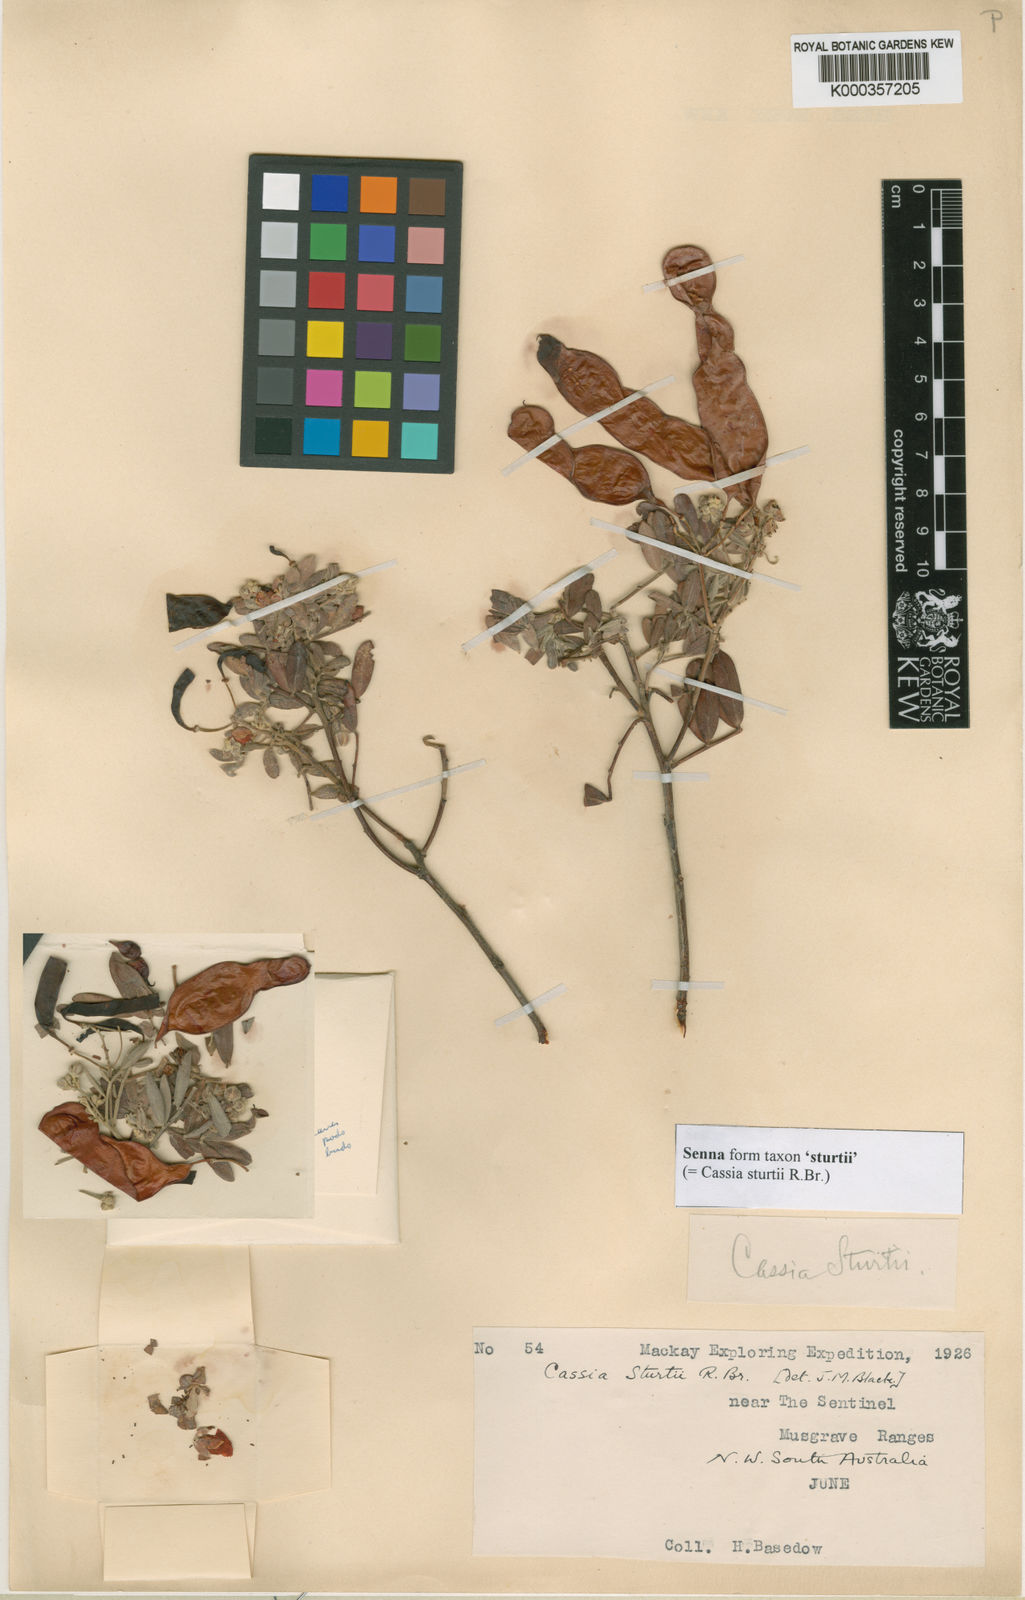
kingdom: Plantae
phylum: Tracheophyta
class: Magnoliopsida
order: Fabales
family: Fabaceae
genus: Senna
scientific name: Senna artemisioides
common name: Burnt-leaved acacia
